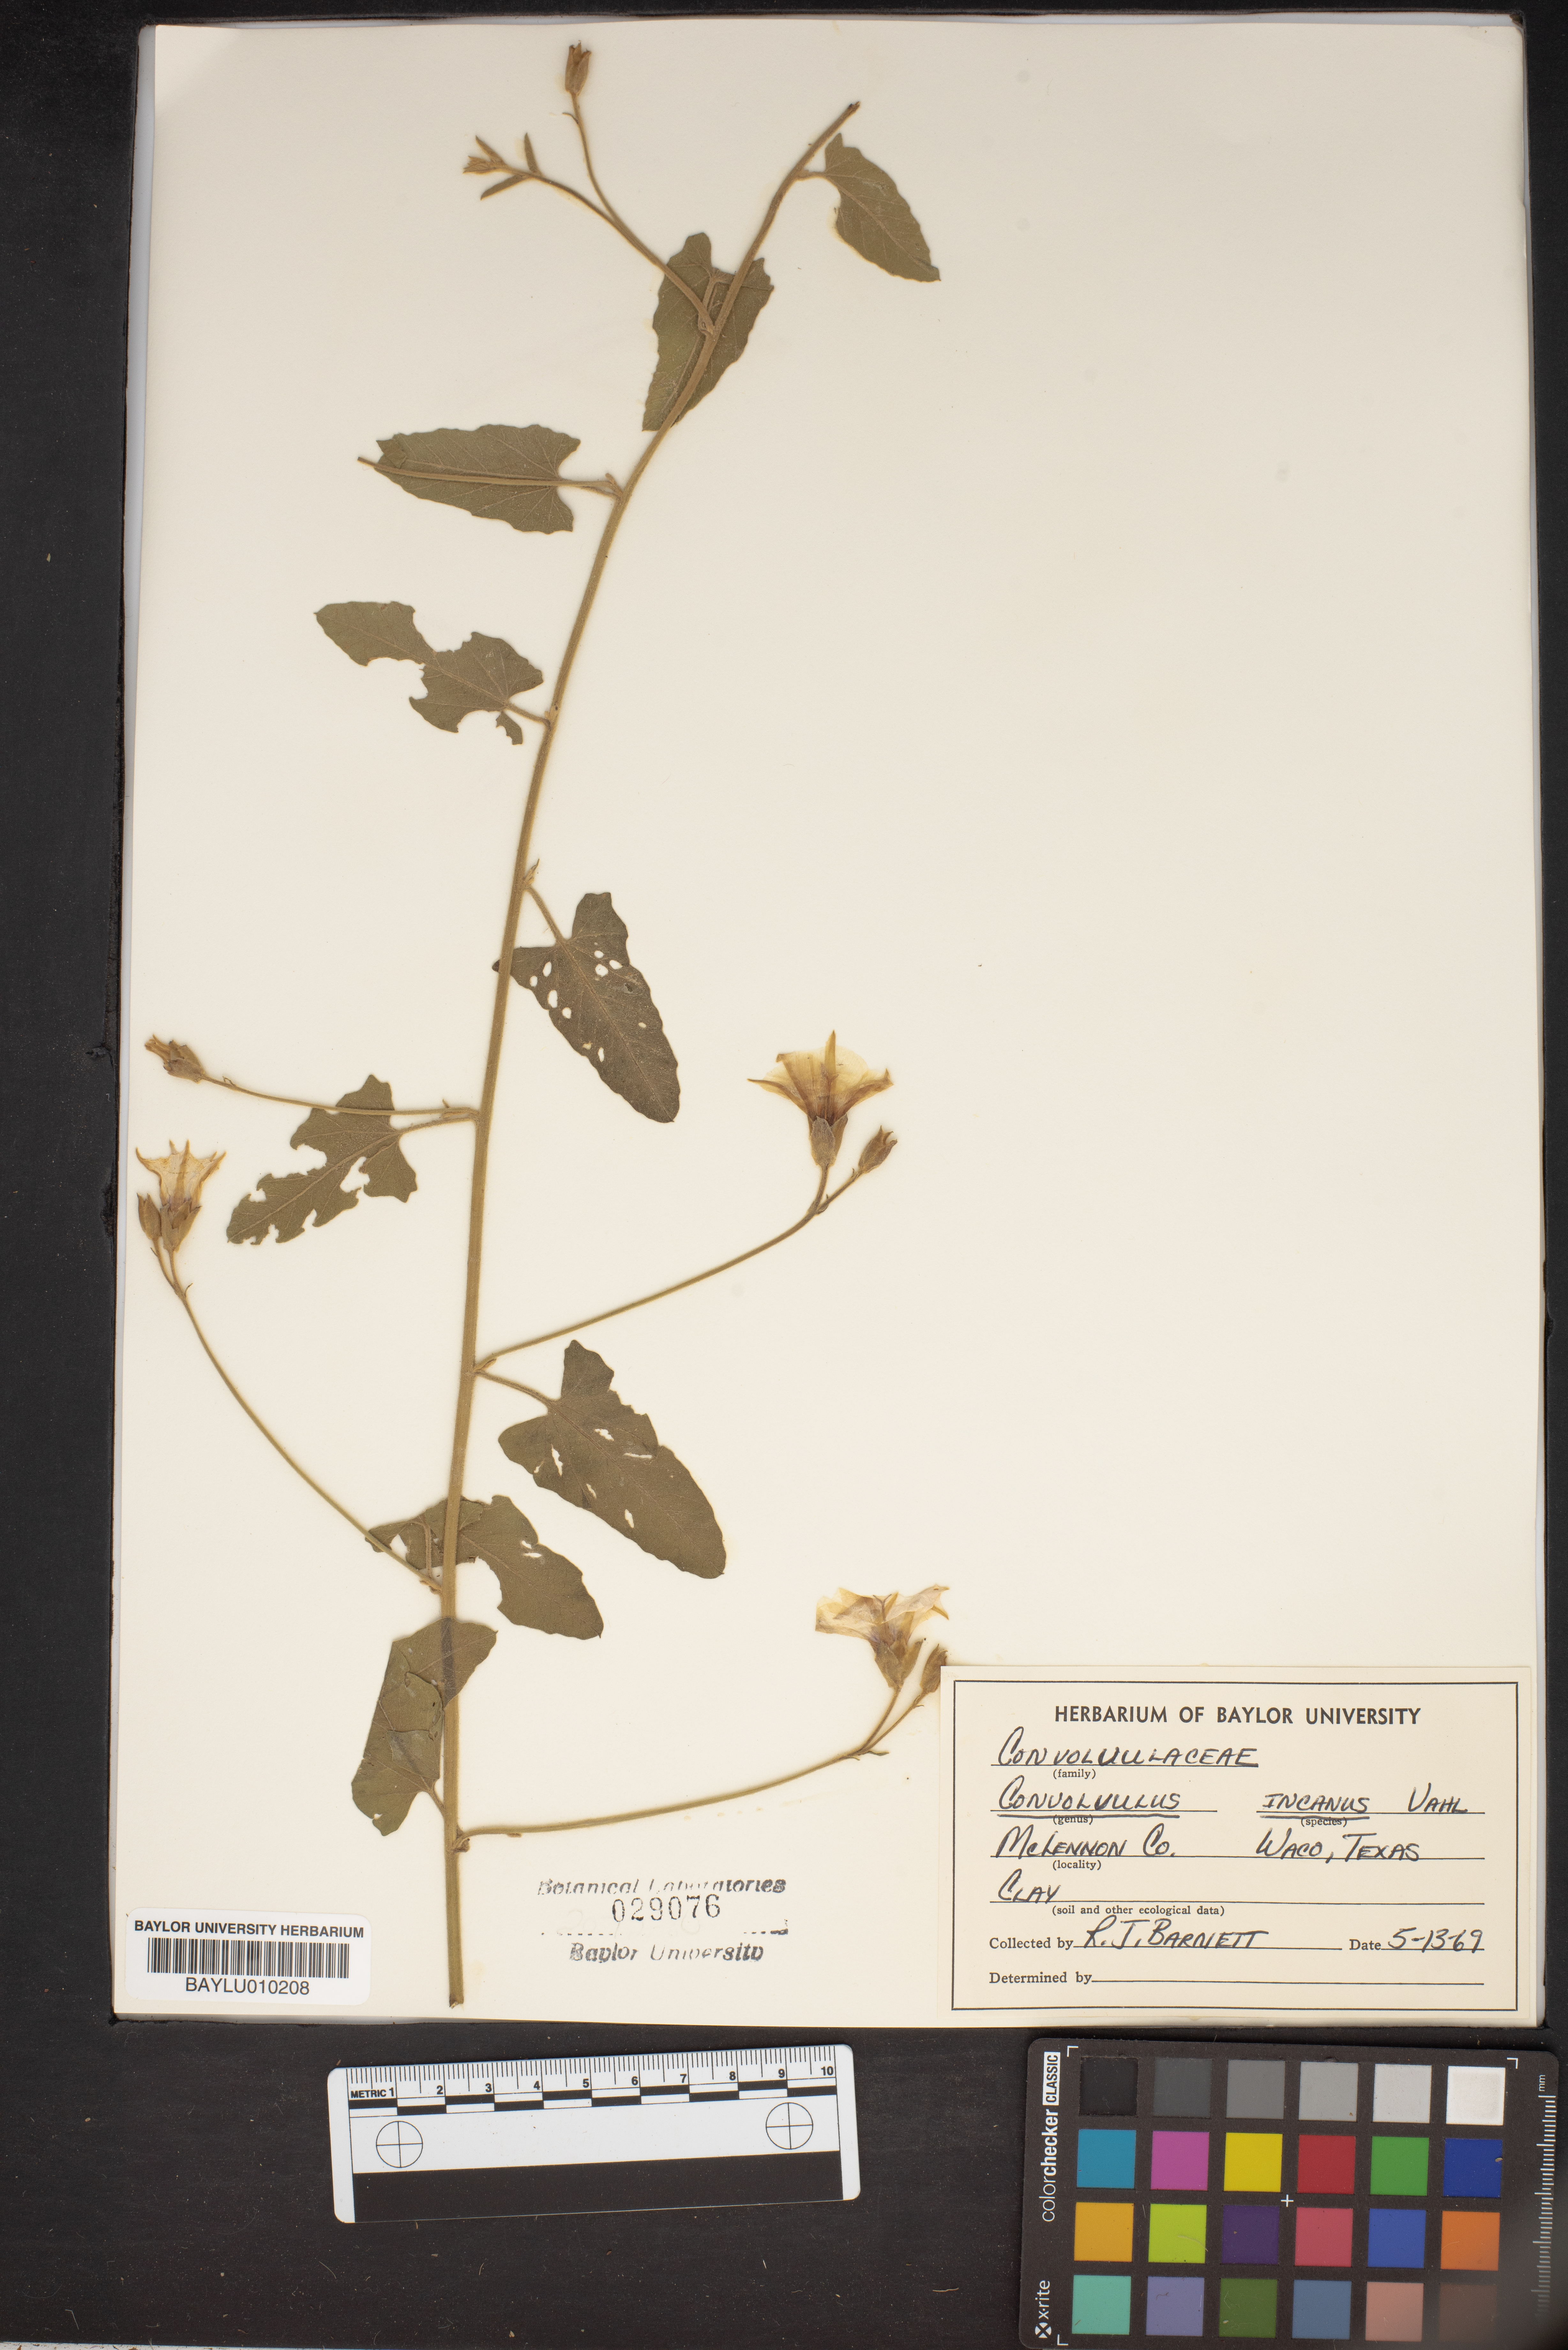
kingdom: Plantae
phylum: Tracheophyta
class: Magnoliopsida
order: Solanales
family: Convolvulaceae
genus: Convolvulus
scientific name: Convolvulus hermanniae
